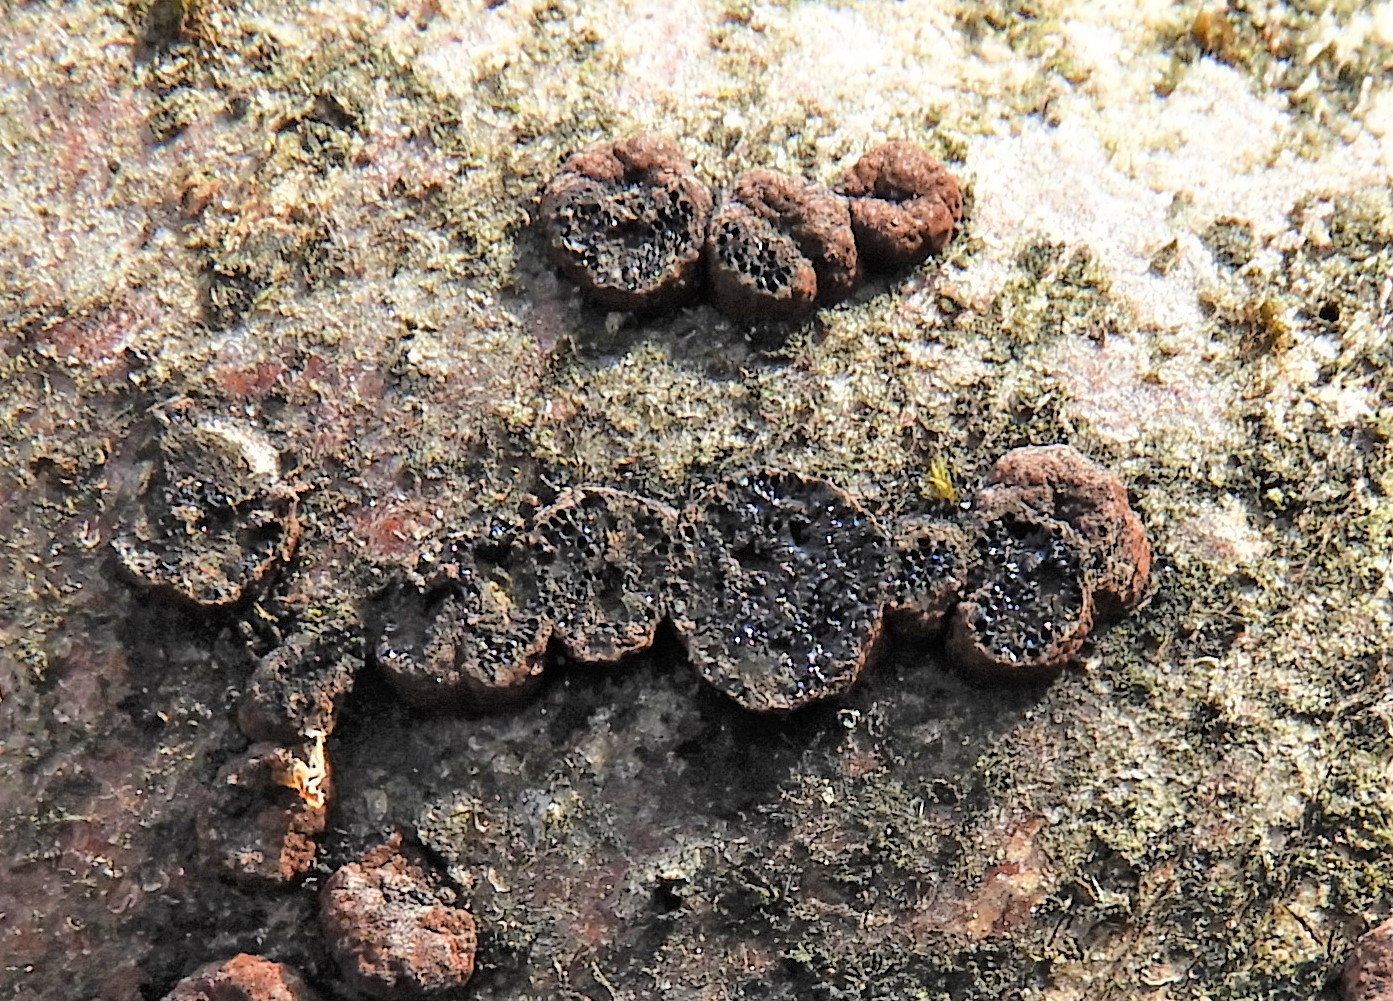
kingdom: Fungi
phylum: Ascomycota
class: Sordariomycetes
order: Xylariales
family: Hypoxylaceae
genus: Hypoxylon
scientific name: Hypoxylon fuscum
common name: kegleformet kulbær
